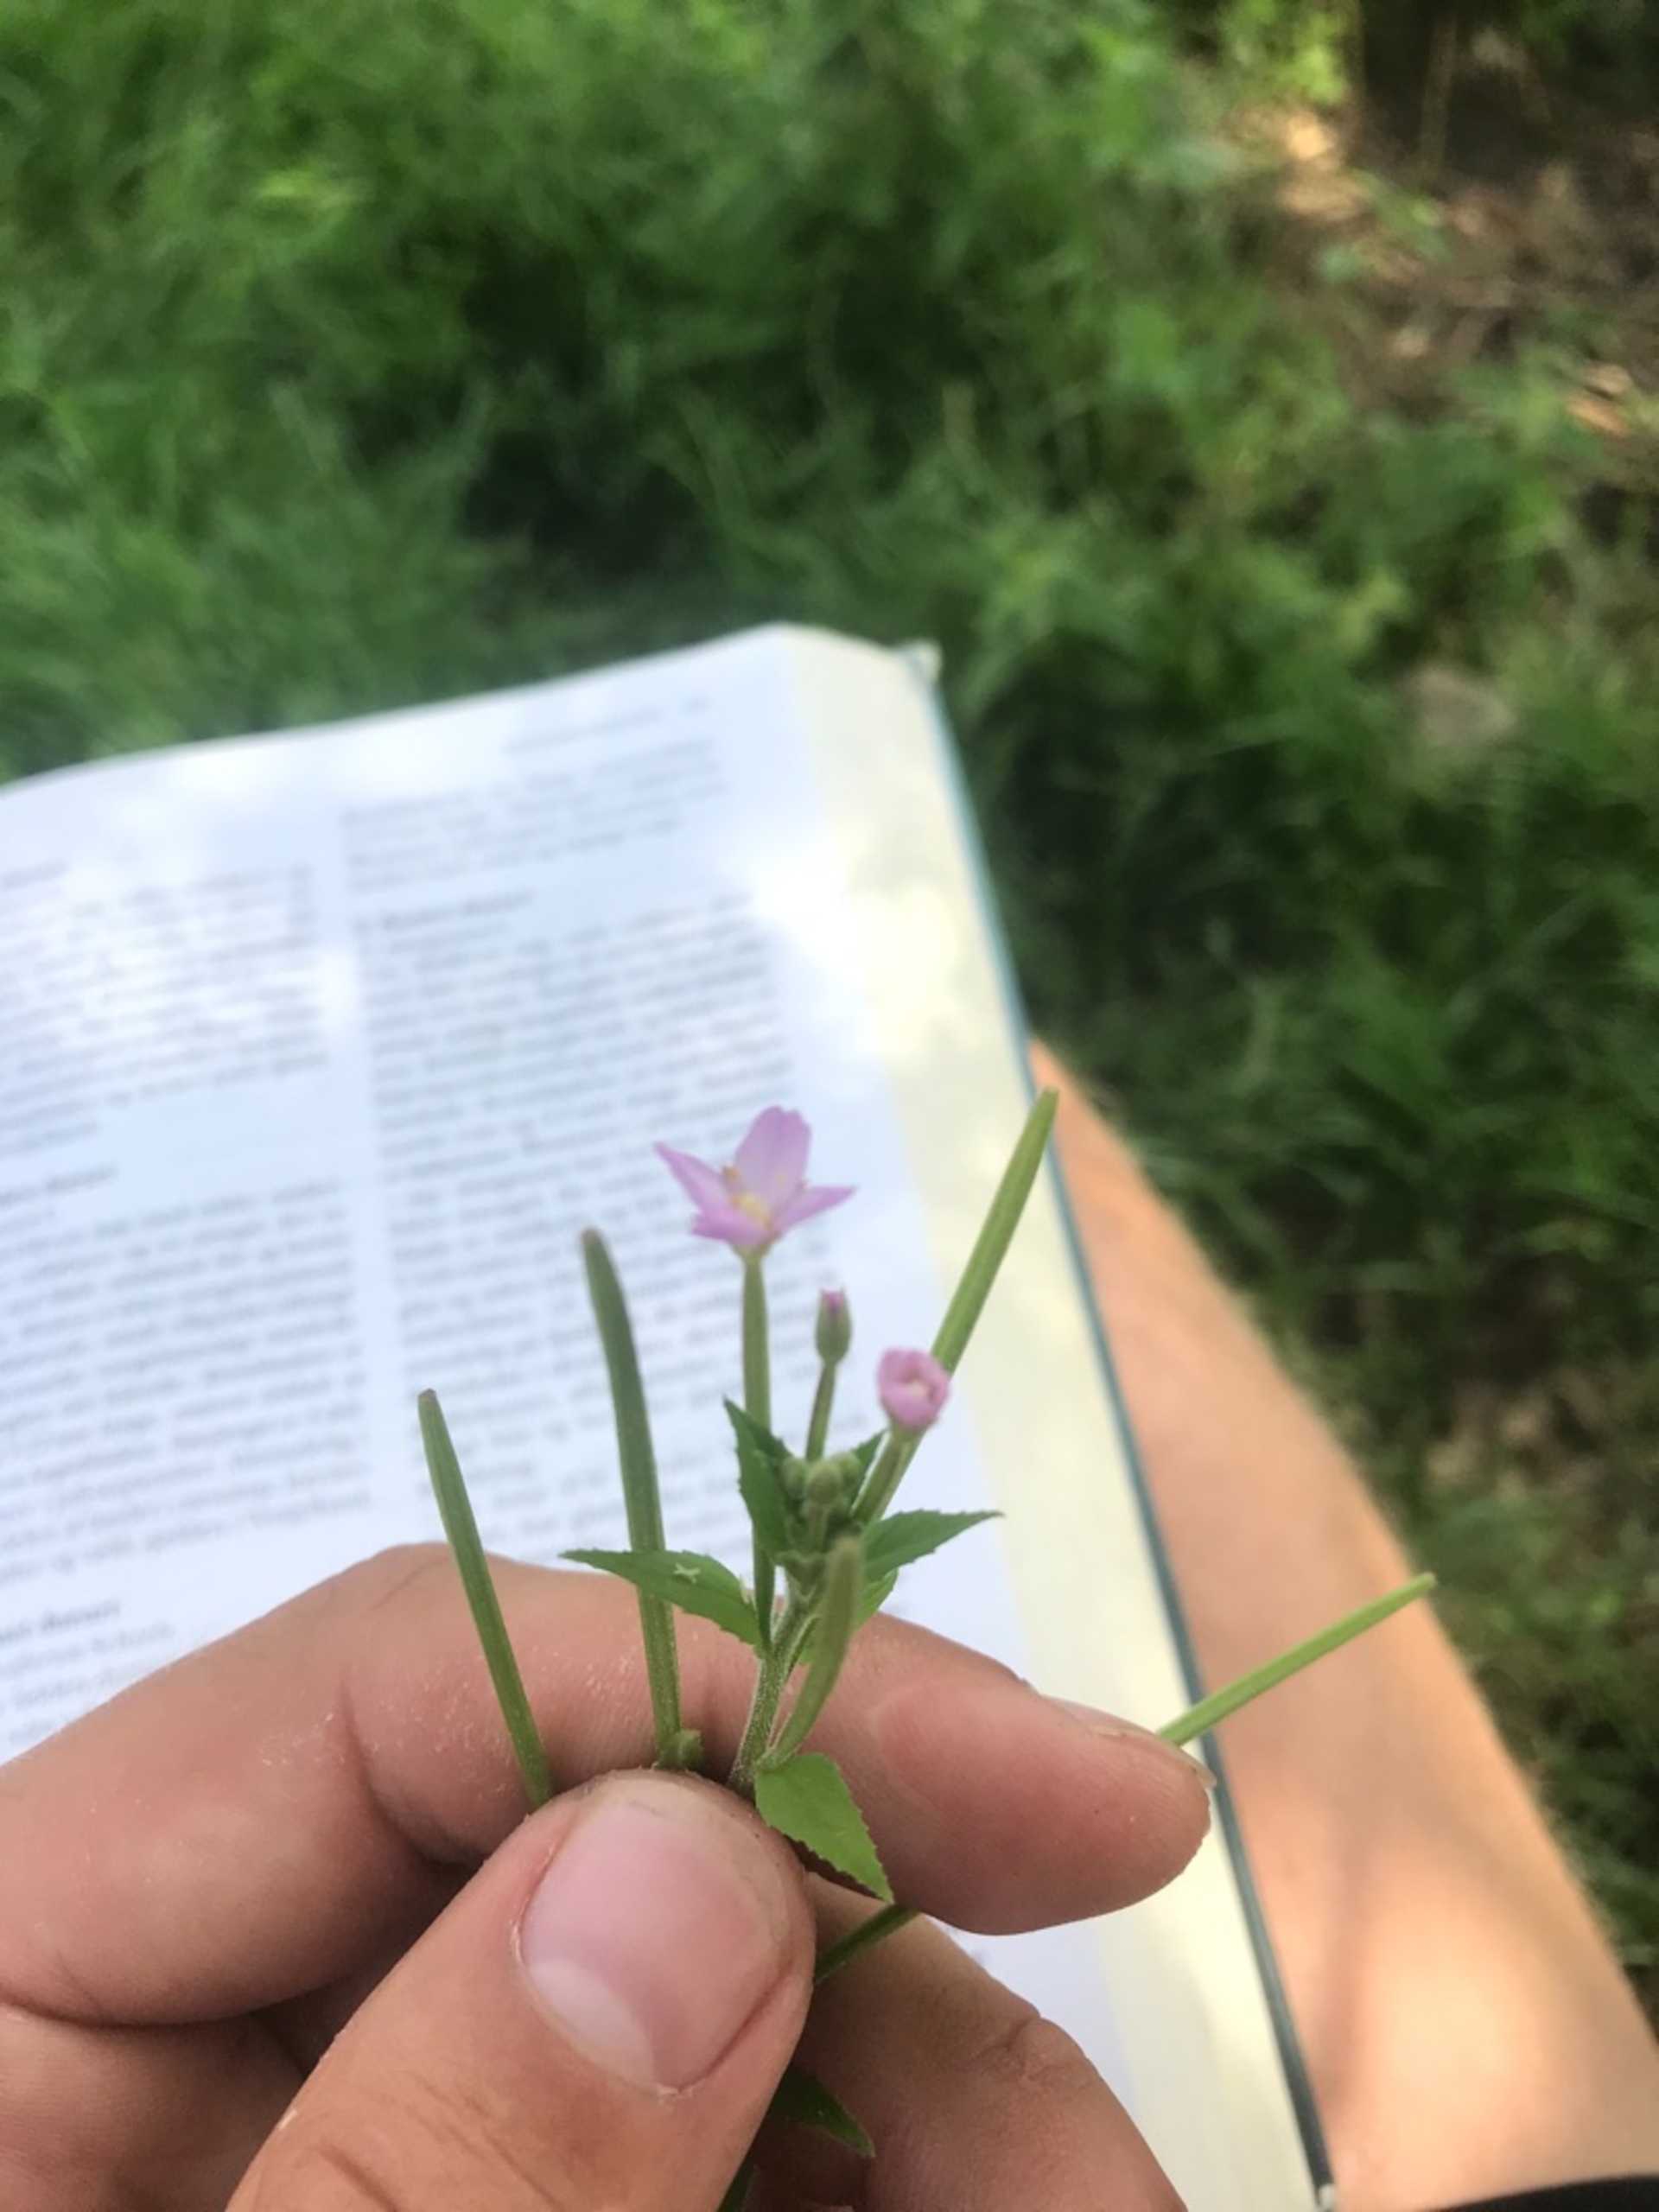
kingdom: Plantae
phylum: Tracheophyta
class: Magnoliopsida
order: Myrtales
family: Onagraceae
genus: Epilobium
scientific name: Epilobium parviflorum
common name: Dunet dueurt
